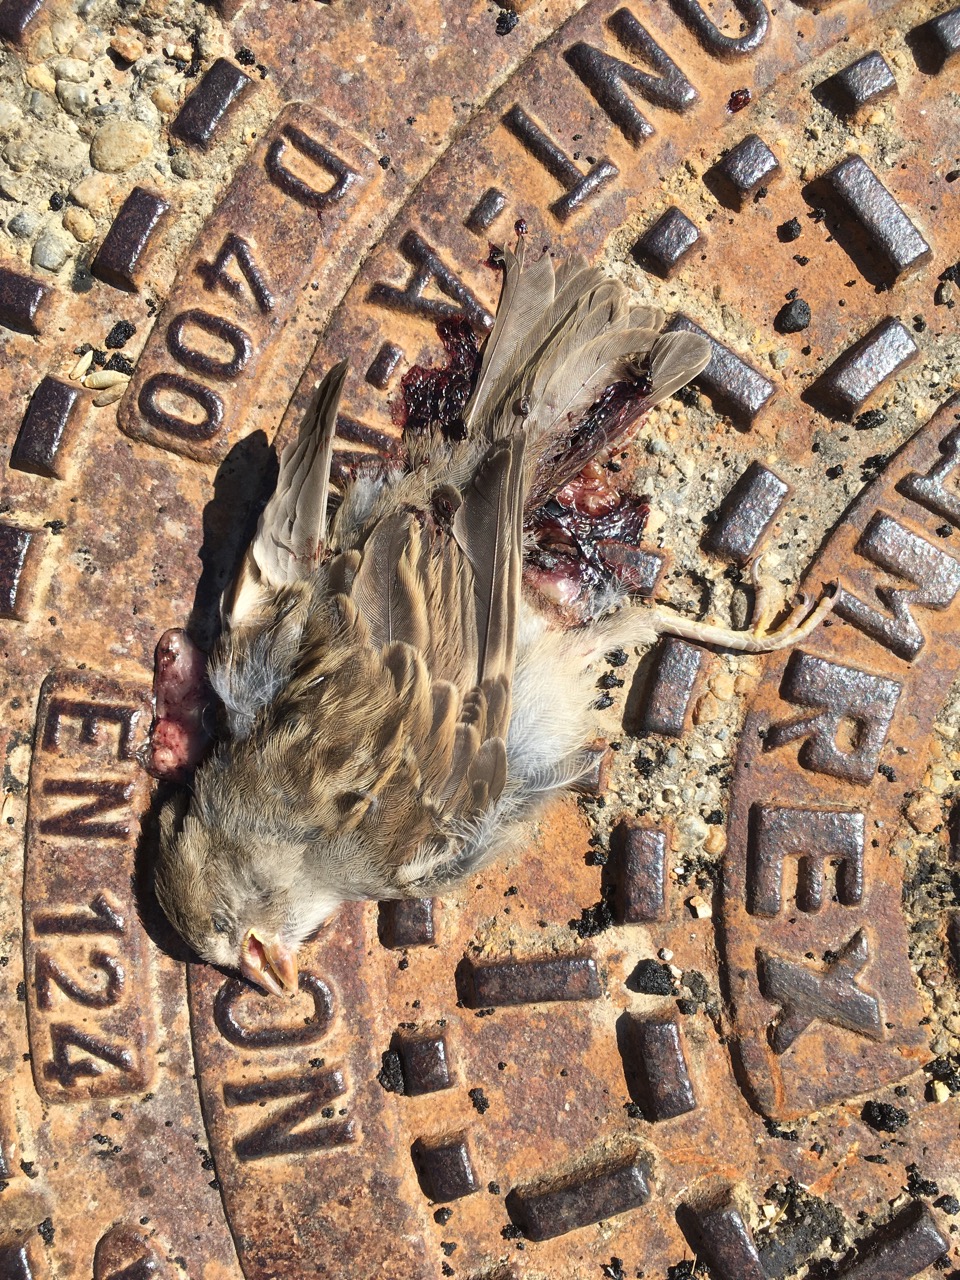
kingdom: Animalia
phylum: Chordata
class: Aves
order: Passeriformes
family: Passeridae
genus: Passer
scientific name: Passer domesticus
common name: House sparrow
